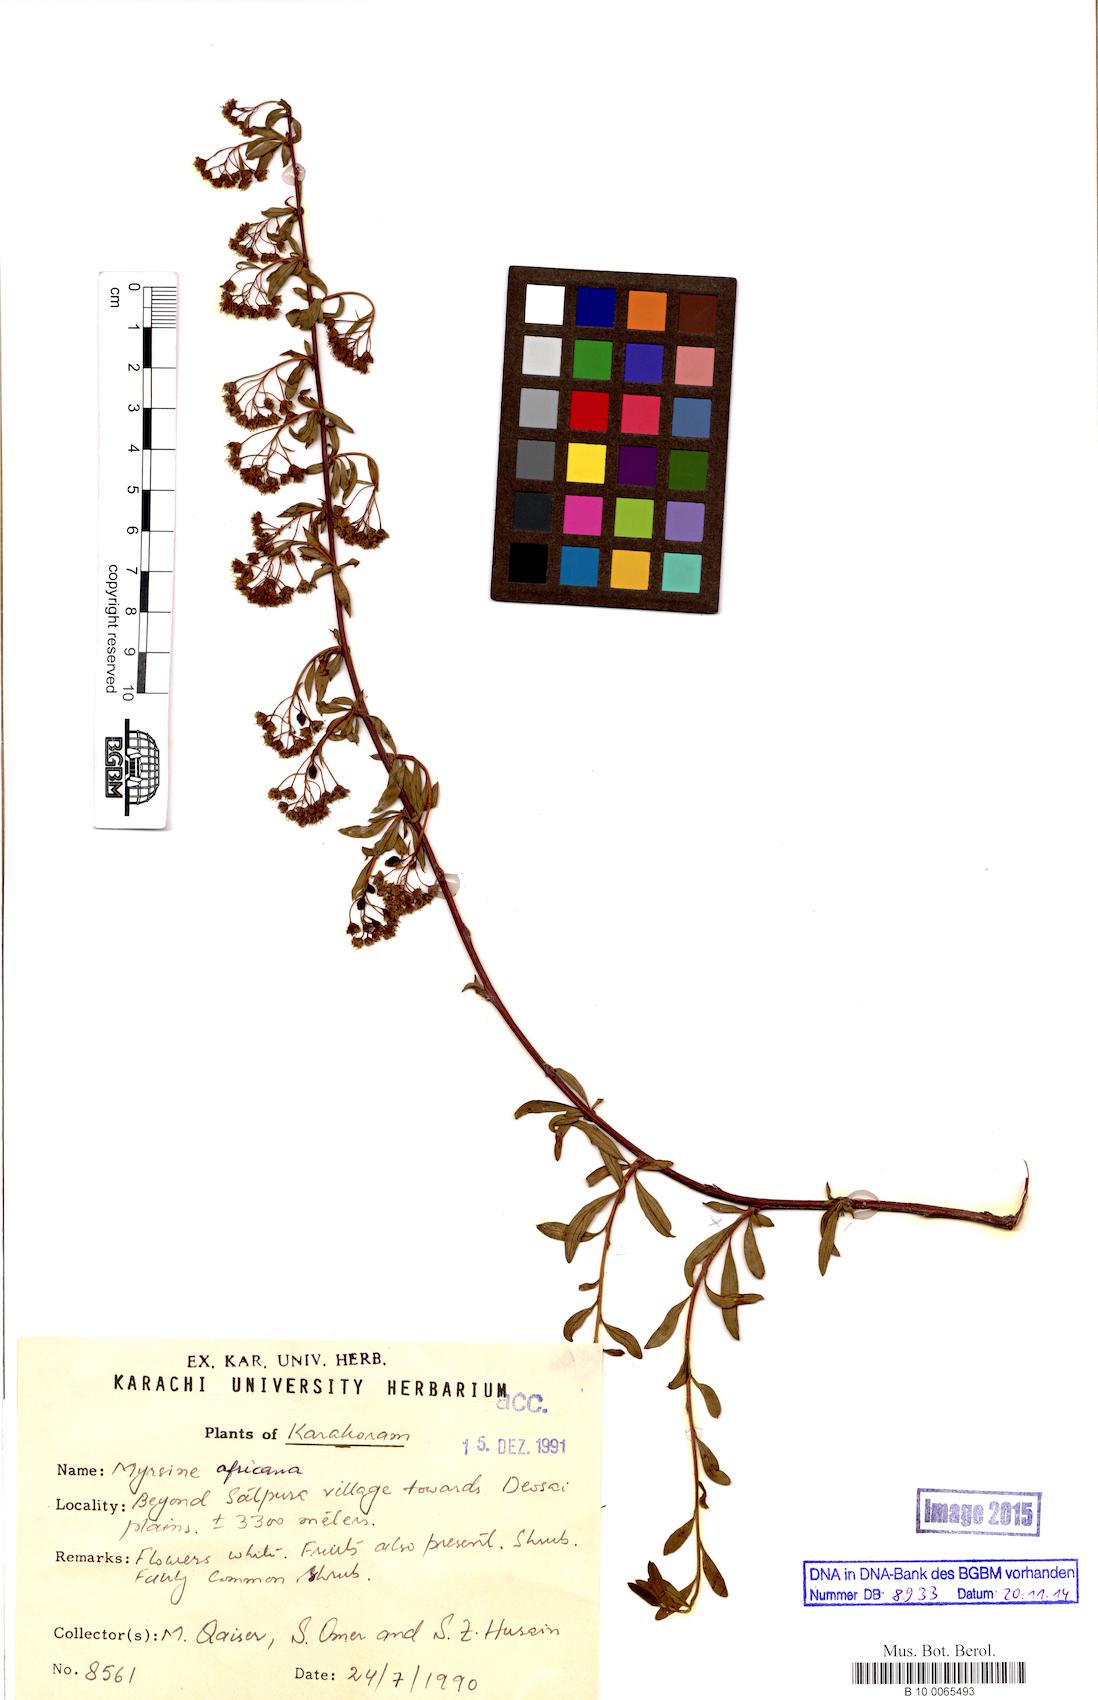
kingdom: Plantae
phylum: Tracheophyta
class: Magnoliopsida
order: Ericales
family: Primulaceae
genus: Myrsine
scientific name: Myrsine africana
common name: African-boxwood
